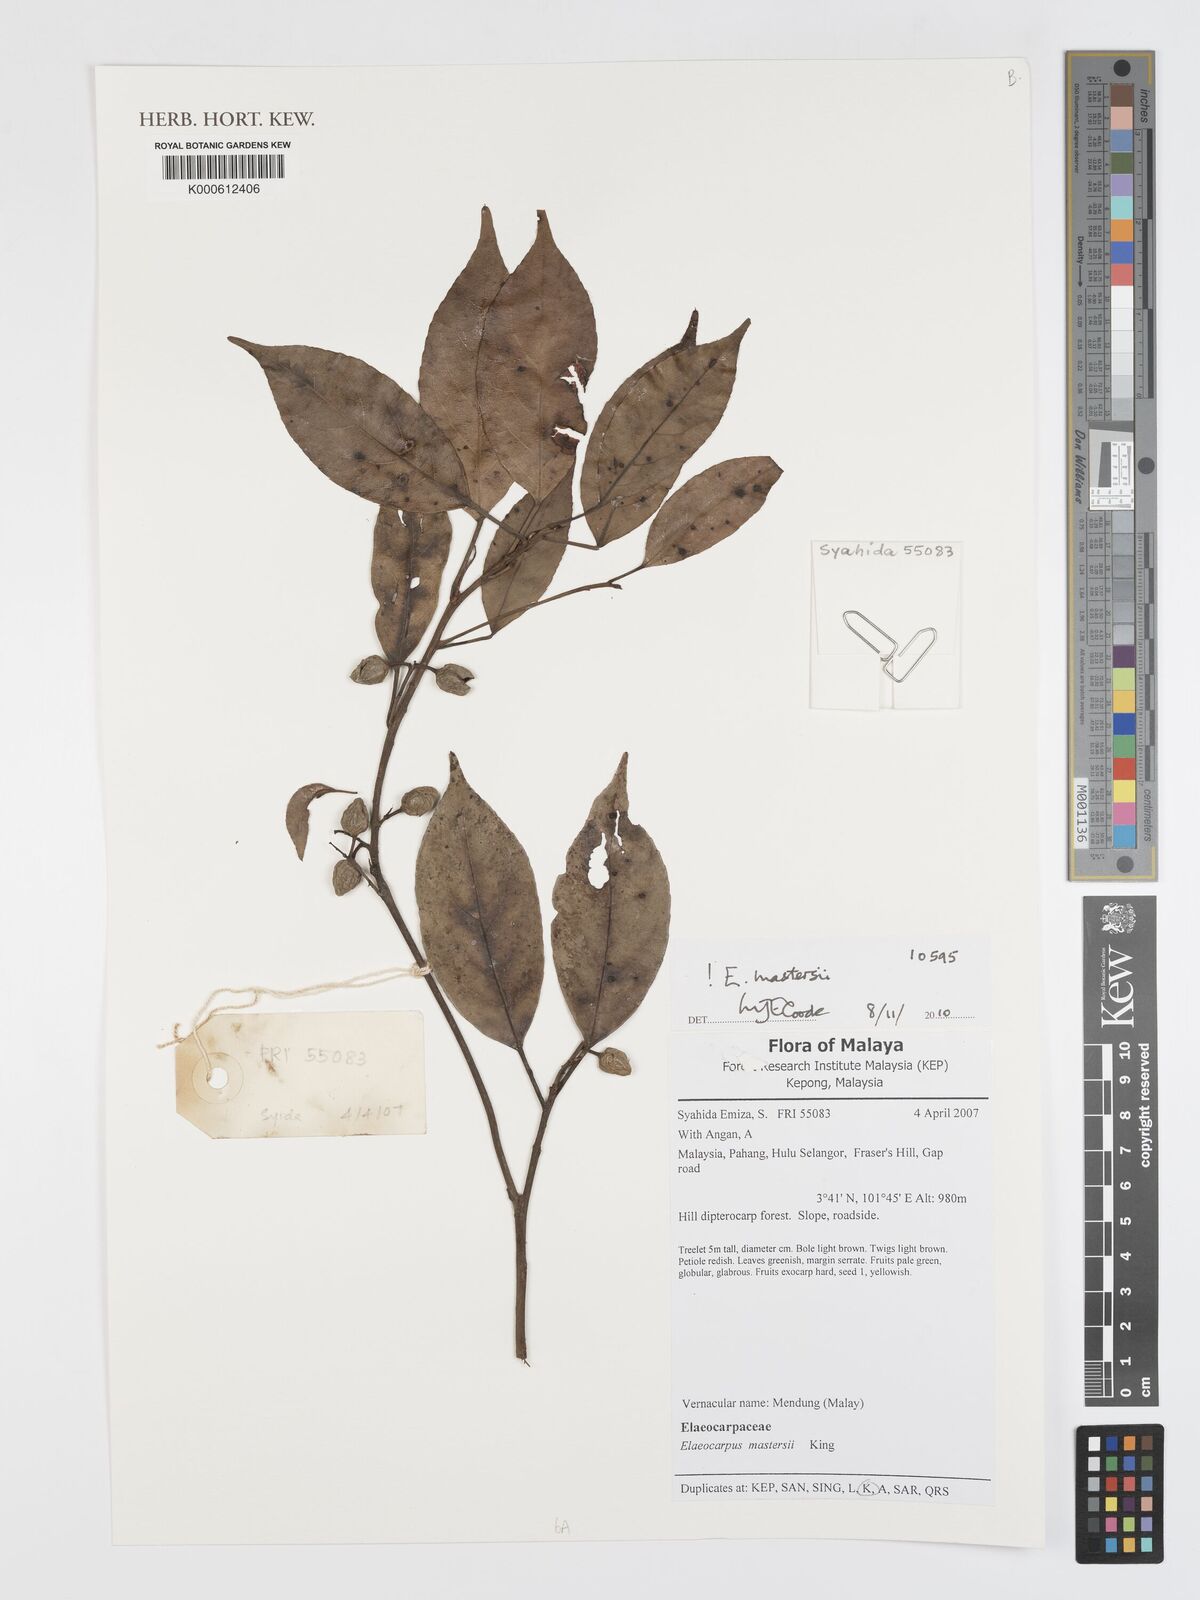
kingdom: Plantae
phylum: Tracheophyta
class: Magnoliopsida
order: Oxalidales
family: Elaeocarpaceae
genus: Elaeocarpus
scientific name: Elaeocarpus mastersii
